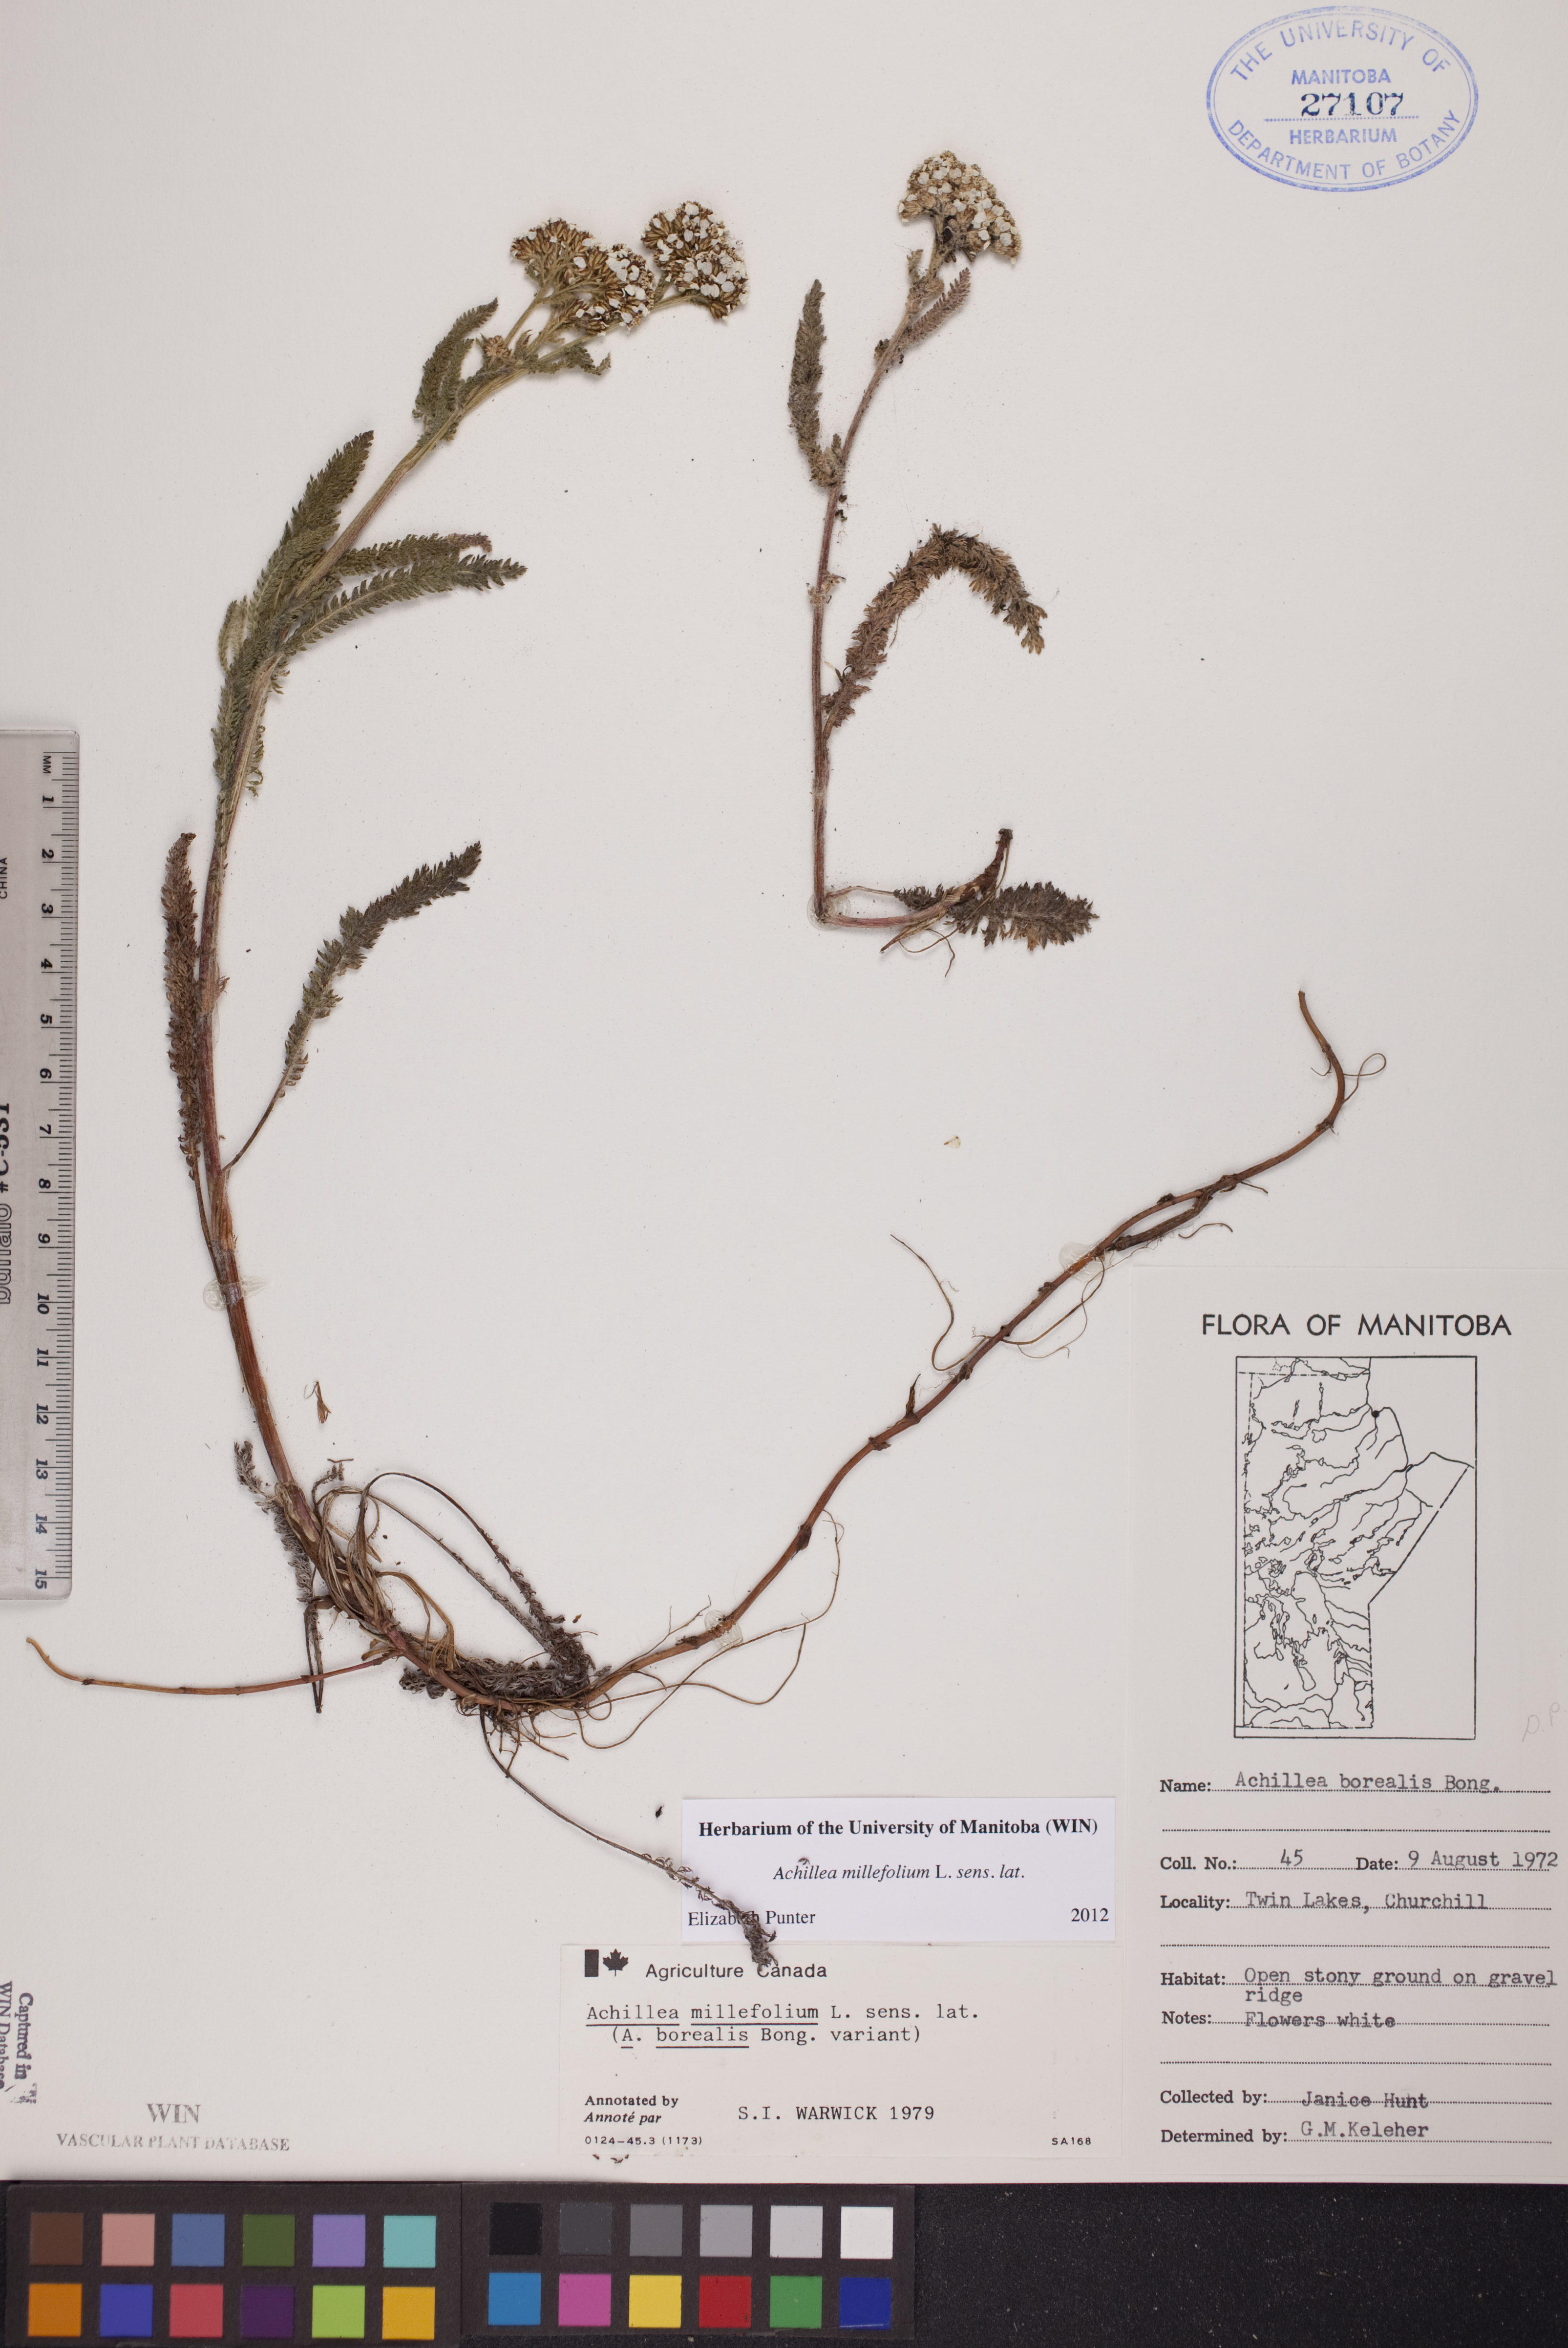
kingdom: Plantae
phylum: Tracheophyta
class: Magnoliopsida
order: Asterales
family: Asteraceae
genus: Achillea
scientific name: Achillea millefolium
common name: Yarrow
